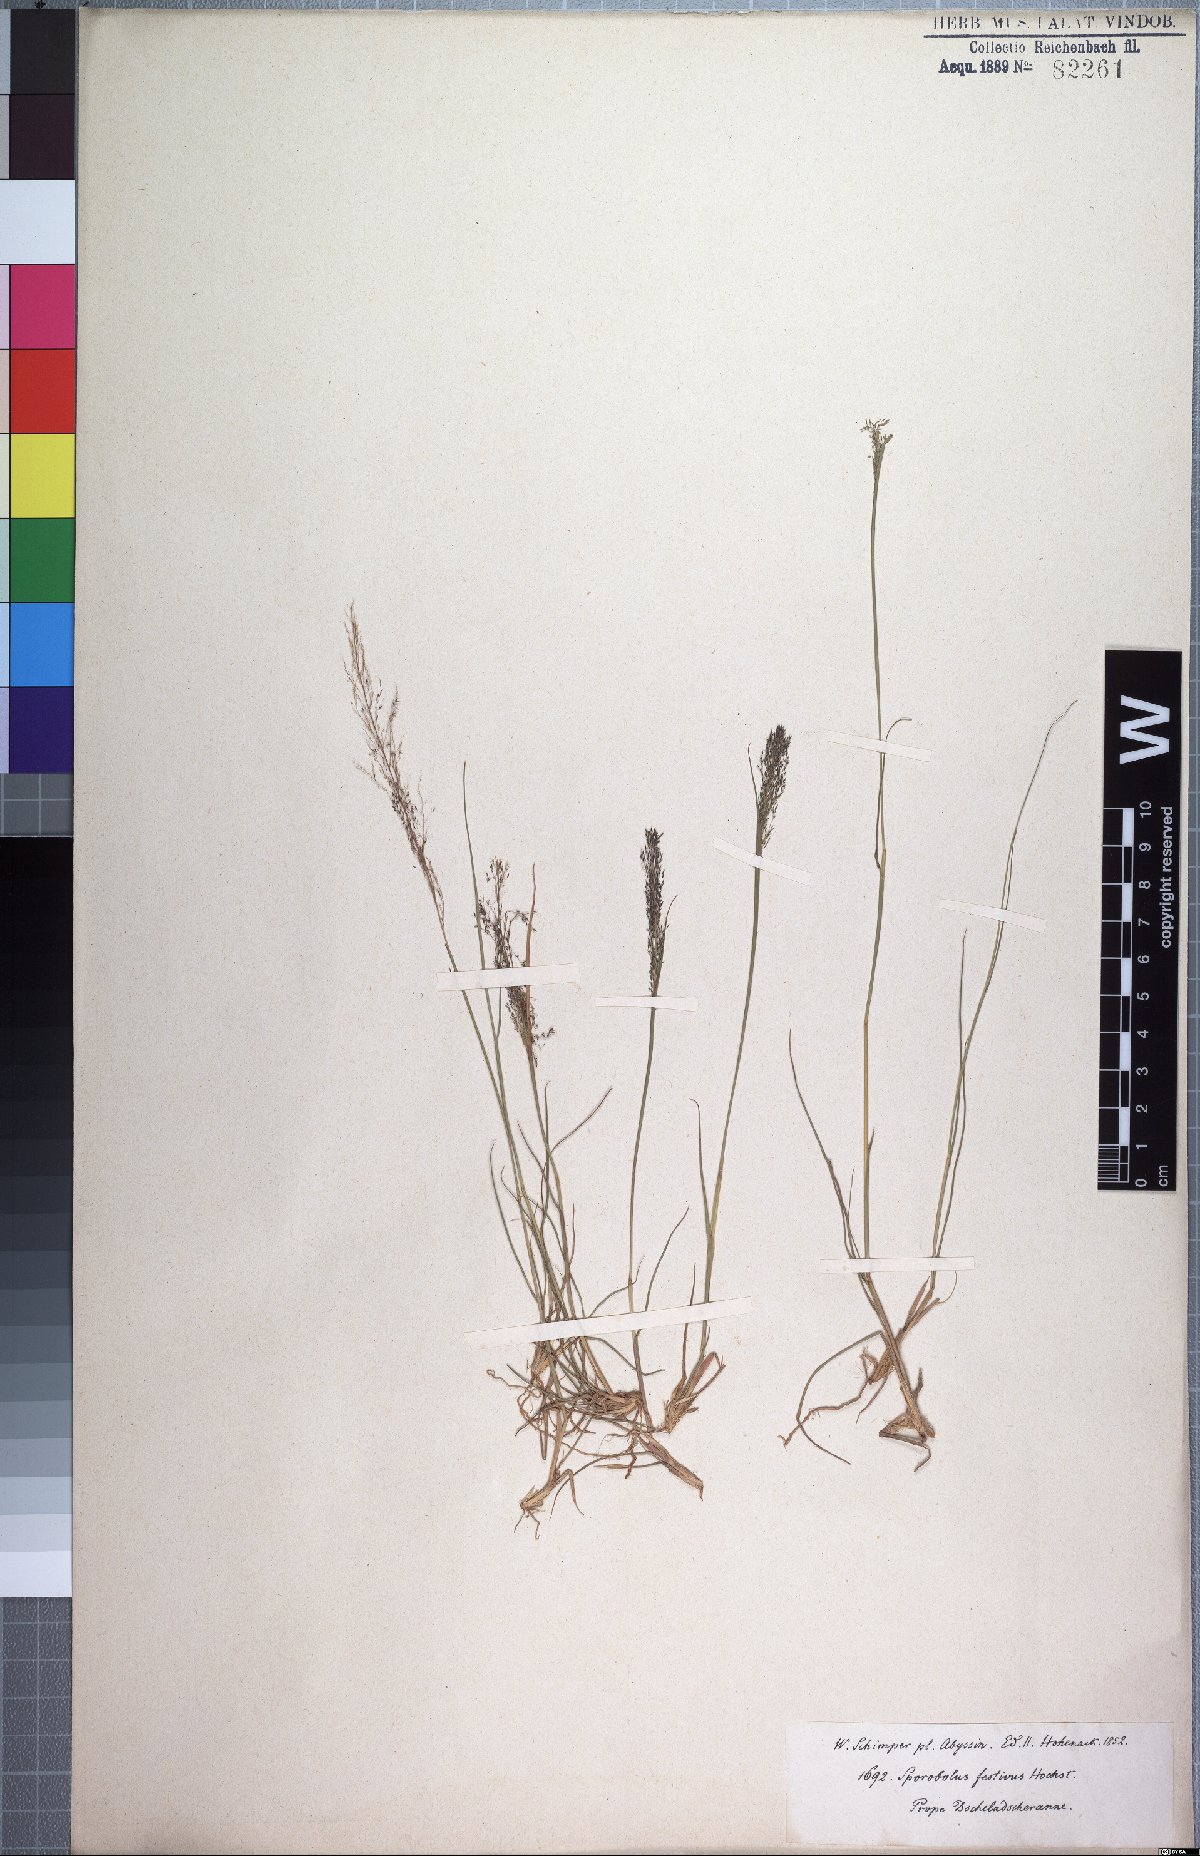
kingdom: Plantae
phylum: Tracheophyta
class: Liliopsida
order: Poales
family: Poaceae
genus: Sporobolus
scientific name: Sporobolus festivus
